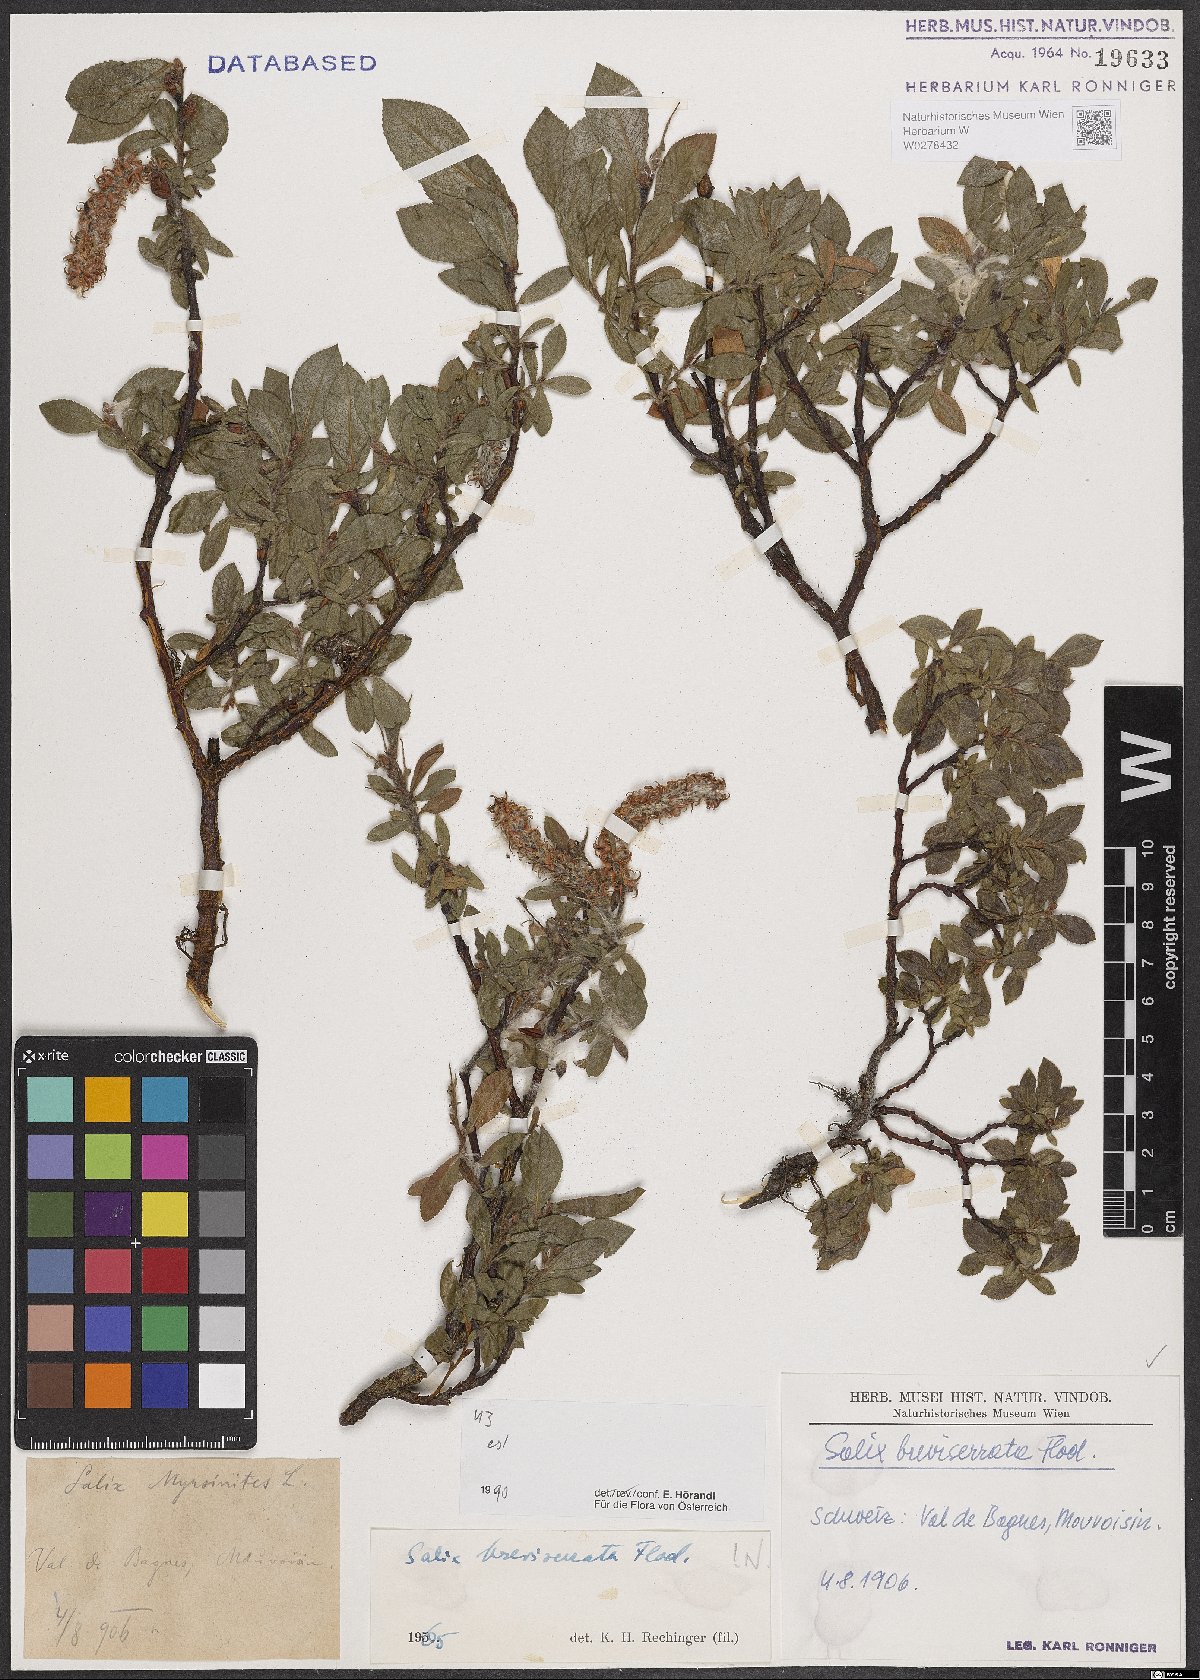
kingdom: Plantae
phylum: Tracheophyta
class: Magnoliopsida
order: Malpighiales
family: Salicaceae
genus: Salix
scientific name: Salix breviserrata
